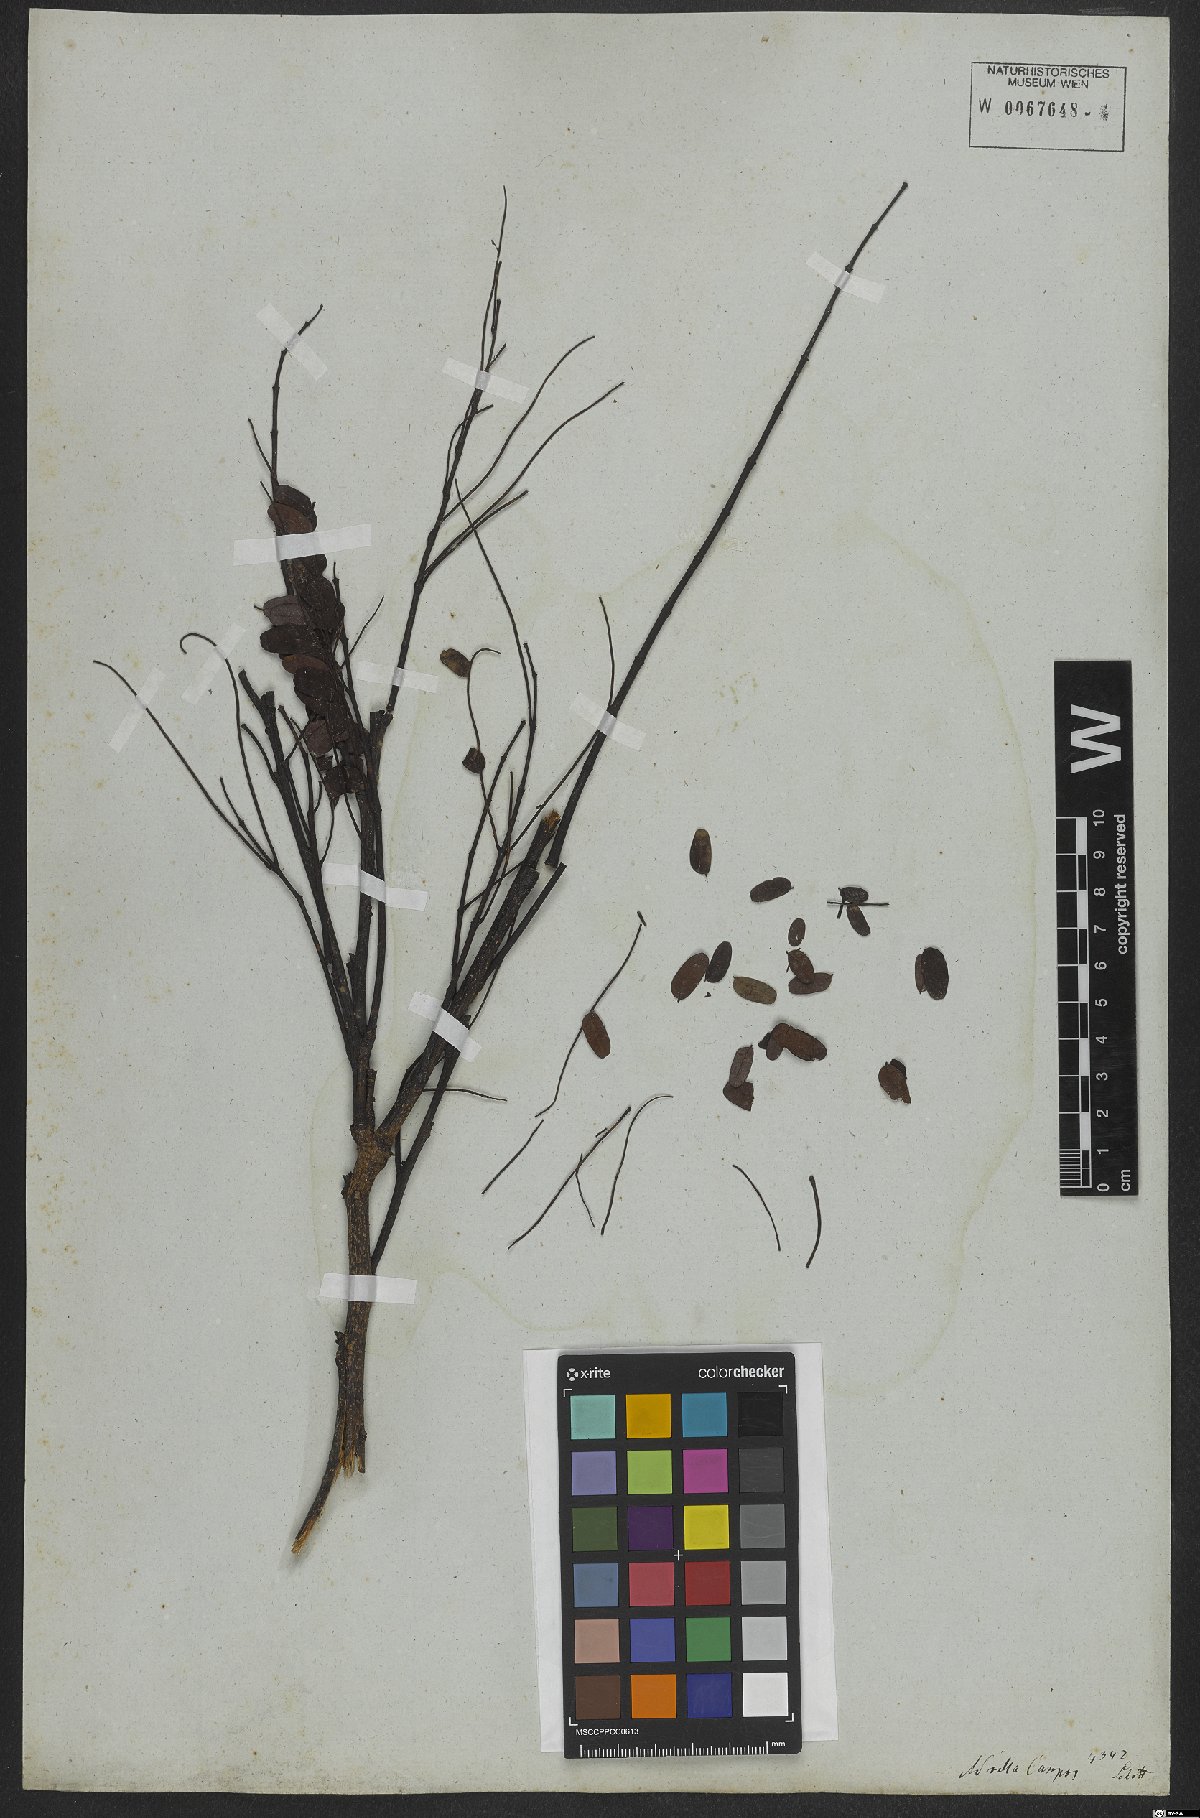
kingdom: Plantae
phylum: Tracheophyta
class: Magnoliopsida
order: Fabales
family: Fabaceae
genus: Caesalpinia
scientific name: Caesalpinia
